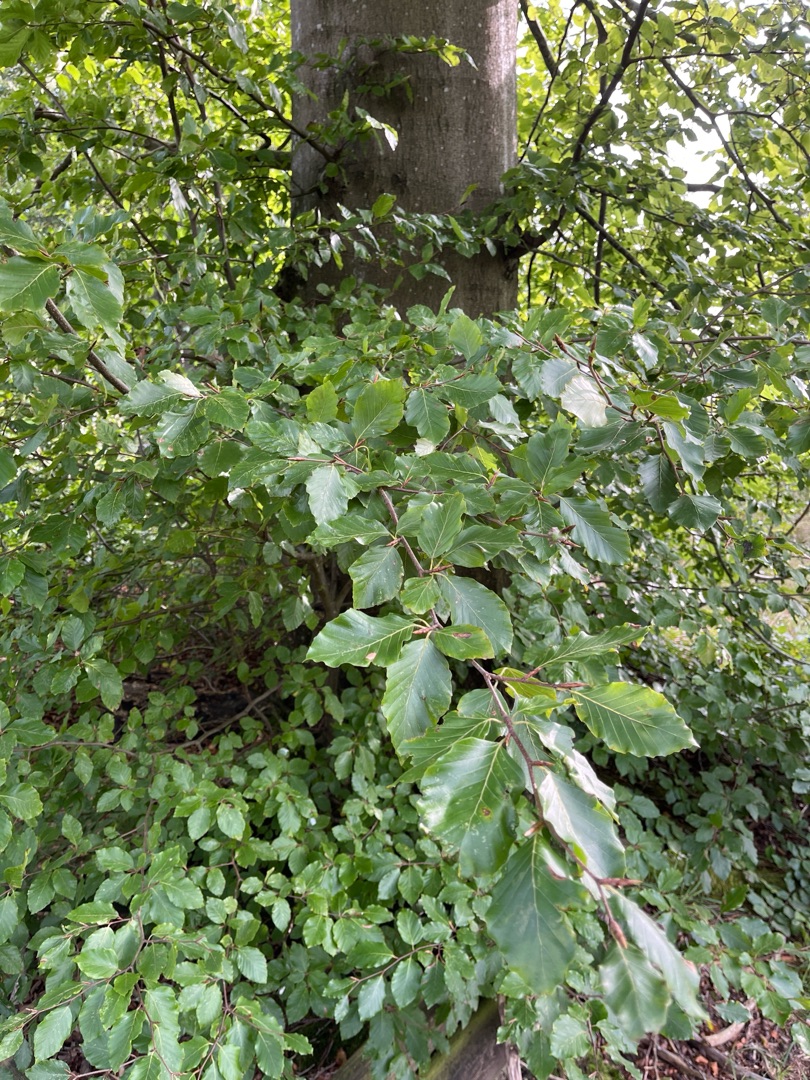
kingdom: Plantae
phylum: Tracheophyta
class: Magnoliopsida
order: Fagales
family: Fagaceae
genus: Fagus
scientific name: Fagus sylvatica
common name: Bøg
